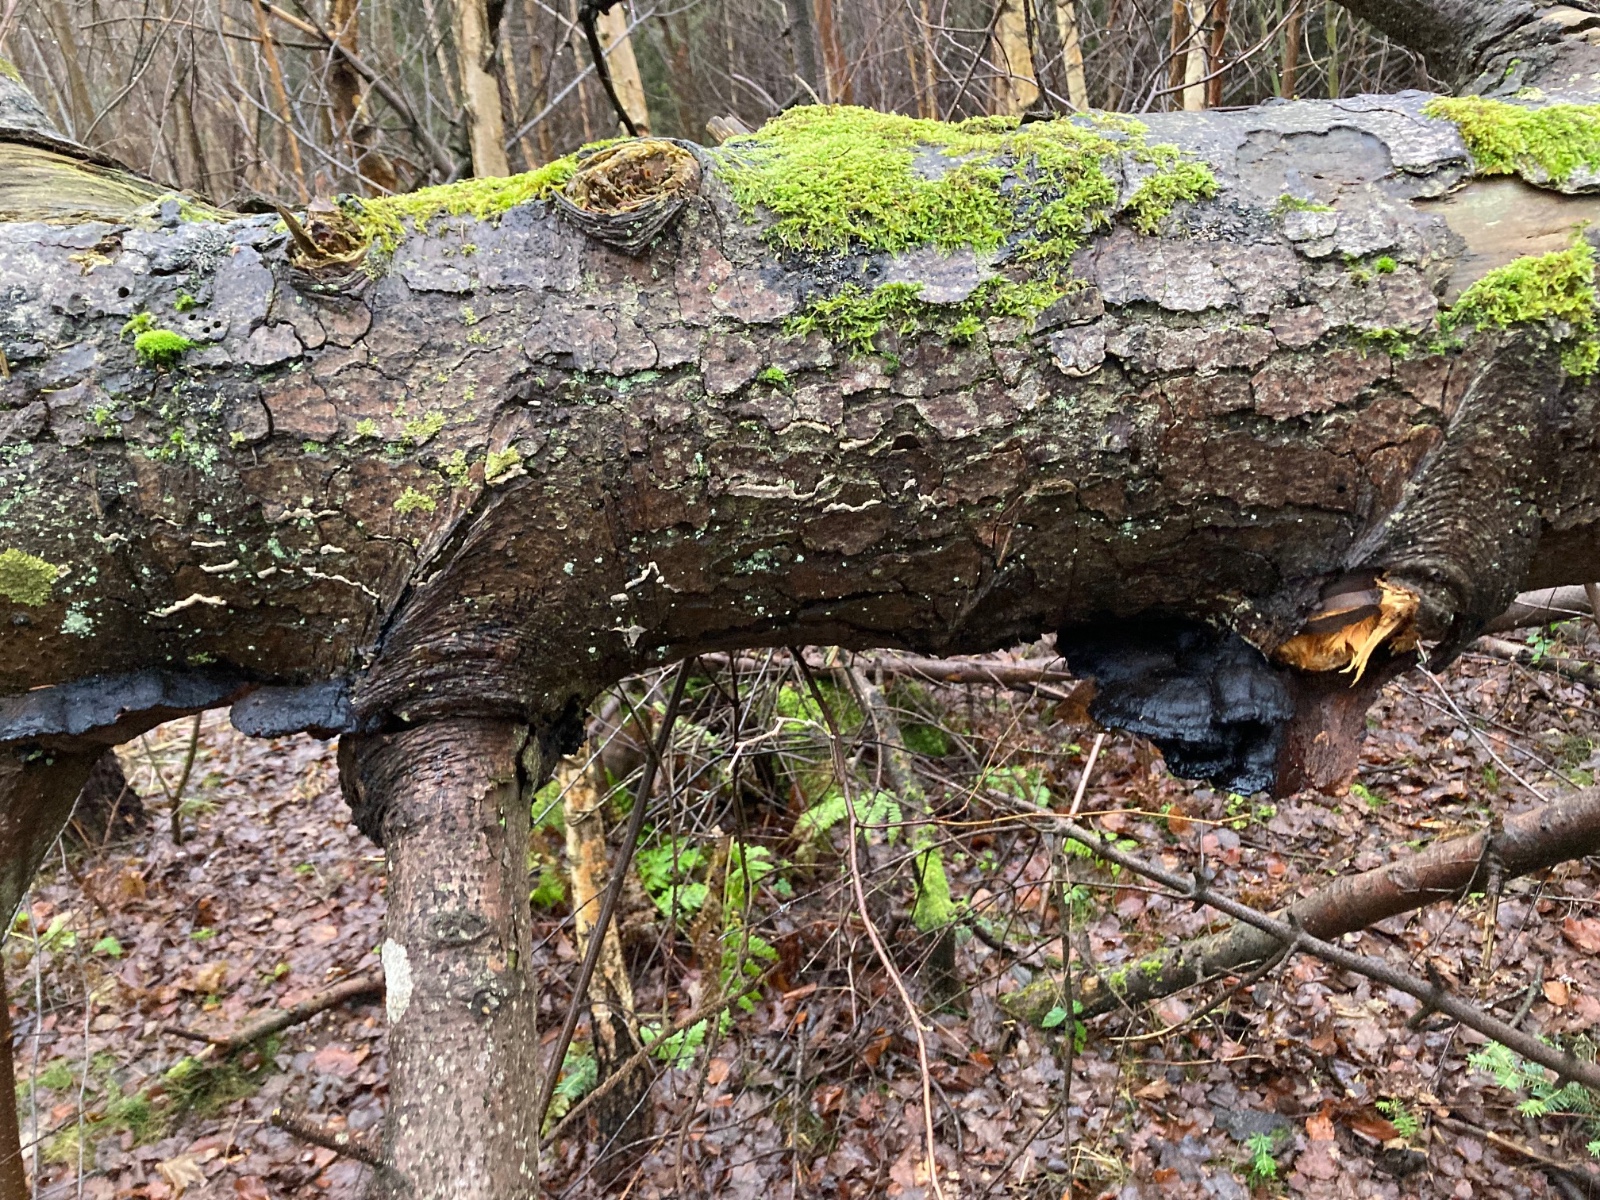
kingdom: Fungi
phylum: Basidiomycota
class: Agaricomycetes
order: Polyporales
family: Ischnodermataceae
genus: Ischnoderma
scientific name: Ischnoderma benzoinum
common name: gran-tjæreporesvamp
